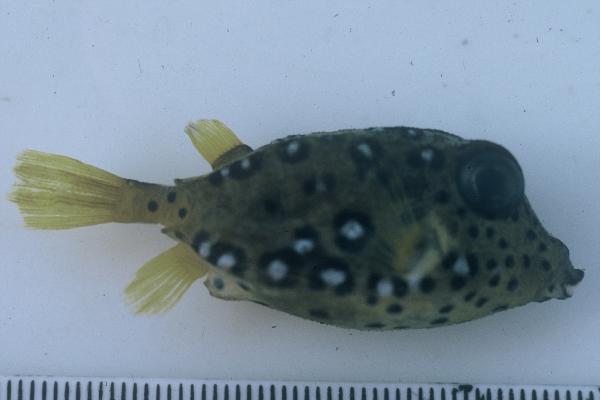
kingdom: Animalia
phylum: Chordata
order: Tetraodontiformes
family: Ostraciidae
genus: Ostracion
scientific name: Ostracion cubicus
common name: Cube trunkfish
